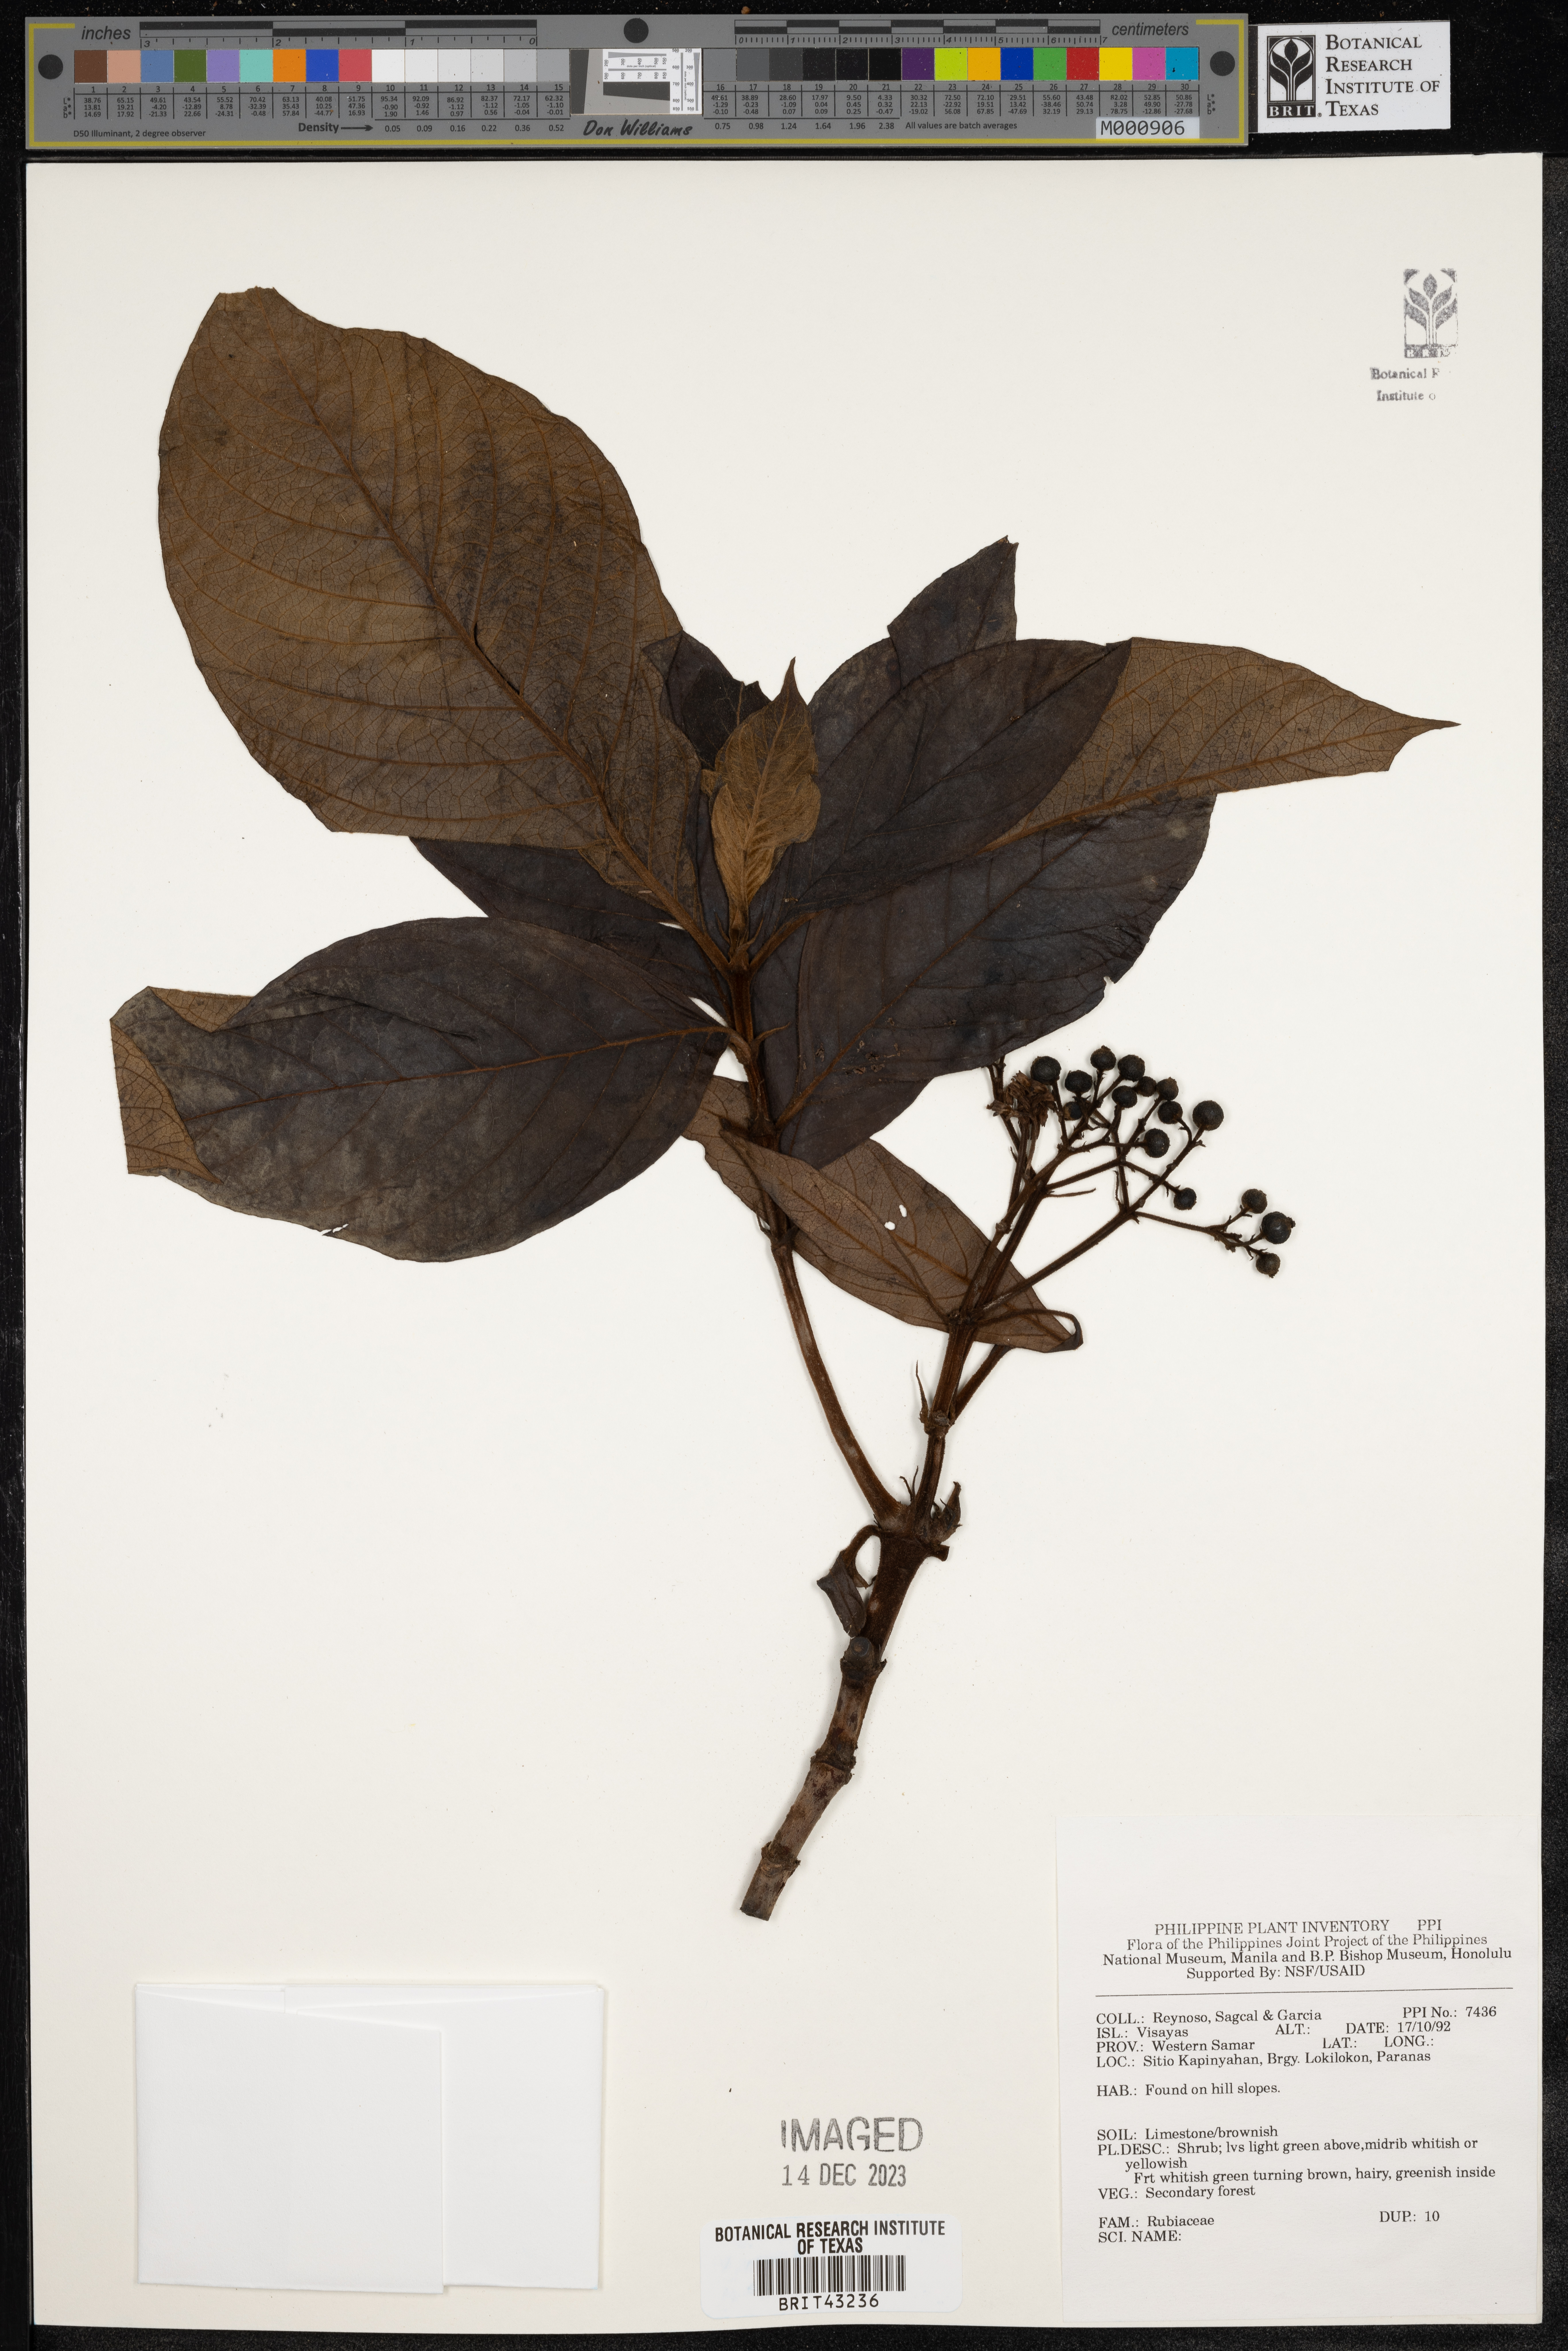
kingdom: Plantae
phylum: Tracheophyta
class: Magnoliopsida
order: Gentianales
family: Rubiaceae
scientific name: Rubiaceae
